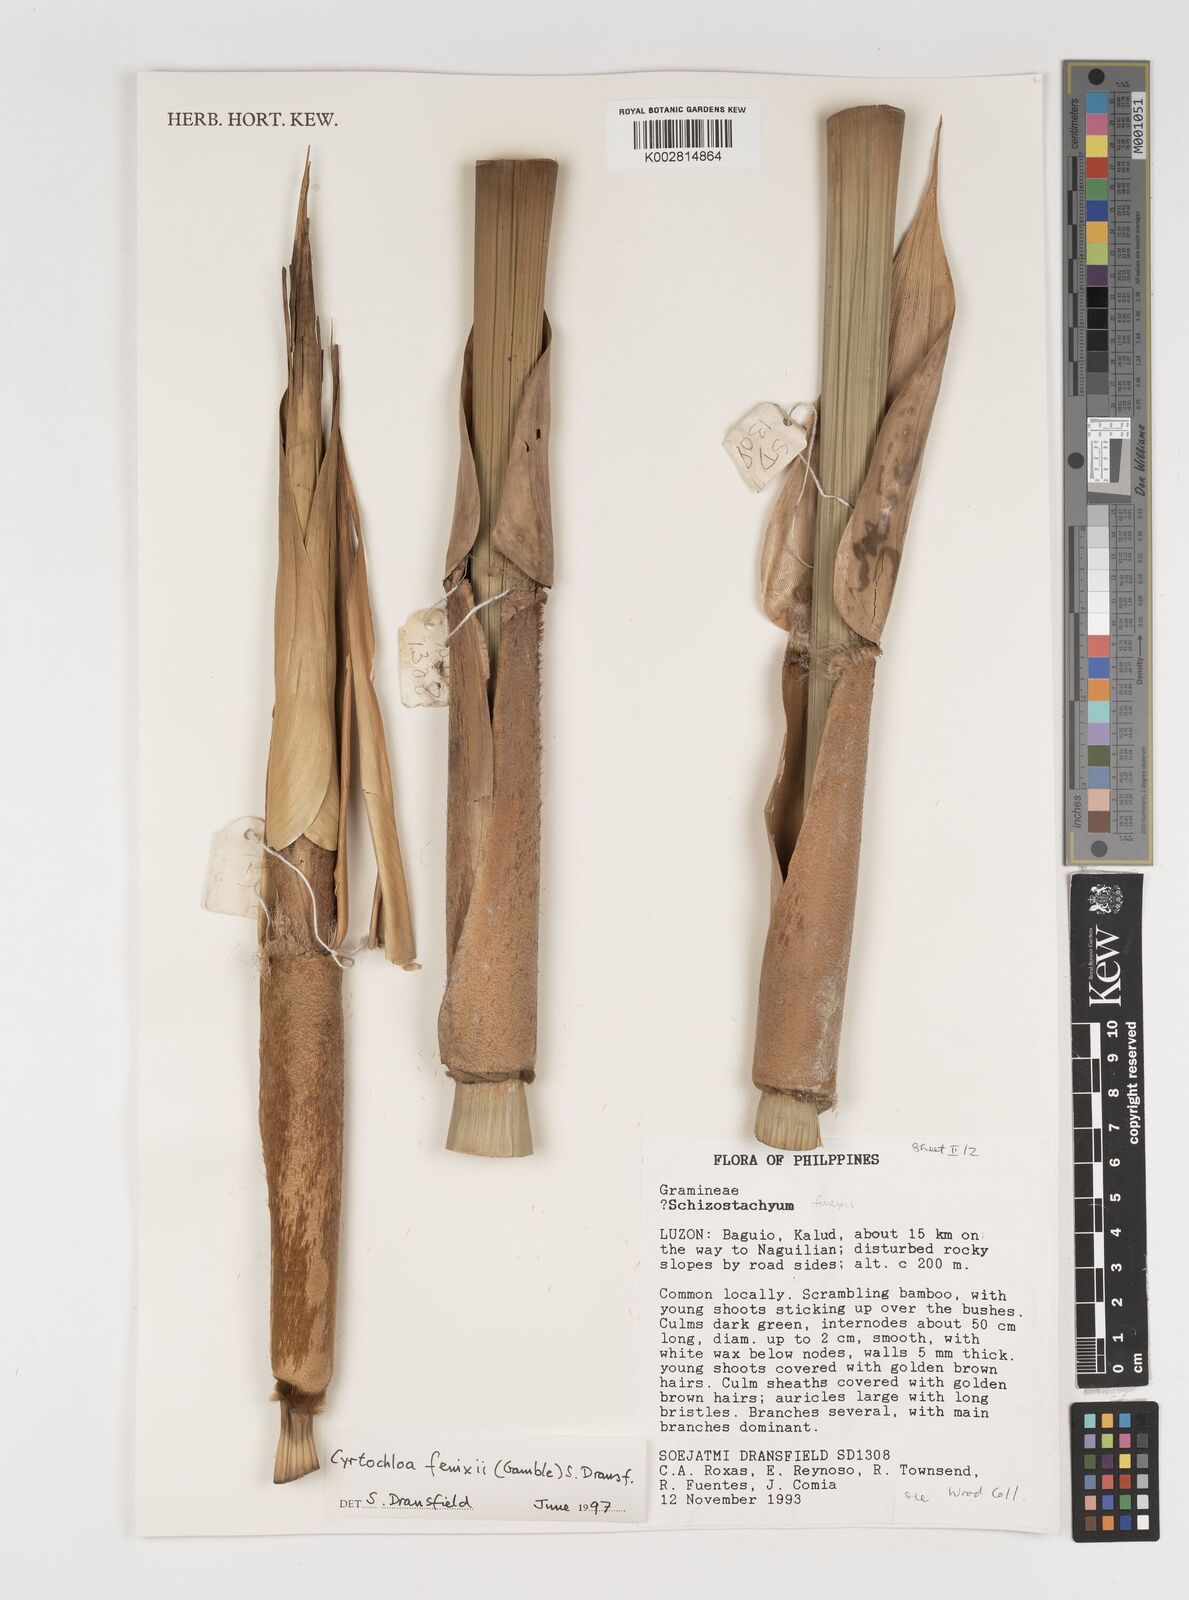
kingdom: Plantae
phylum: Tracheophyta
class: Liliopsida
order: Poales
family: Poaceae
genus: Cyrtochloa
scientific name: Cyrtochloa fenixii
